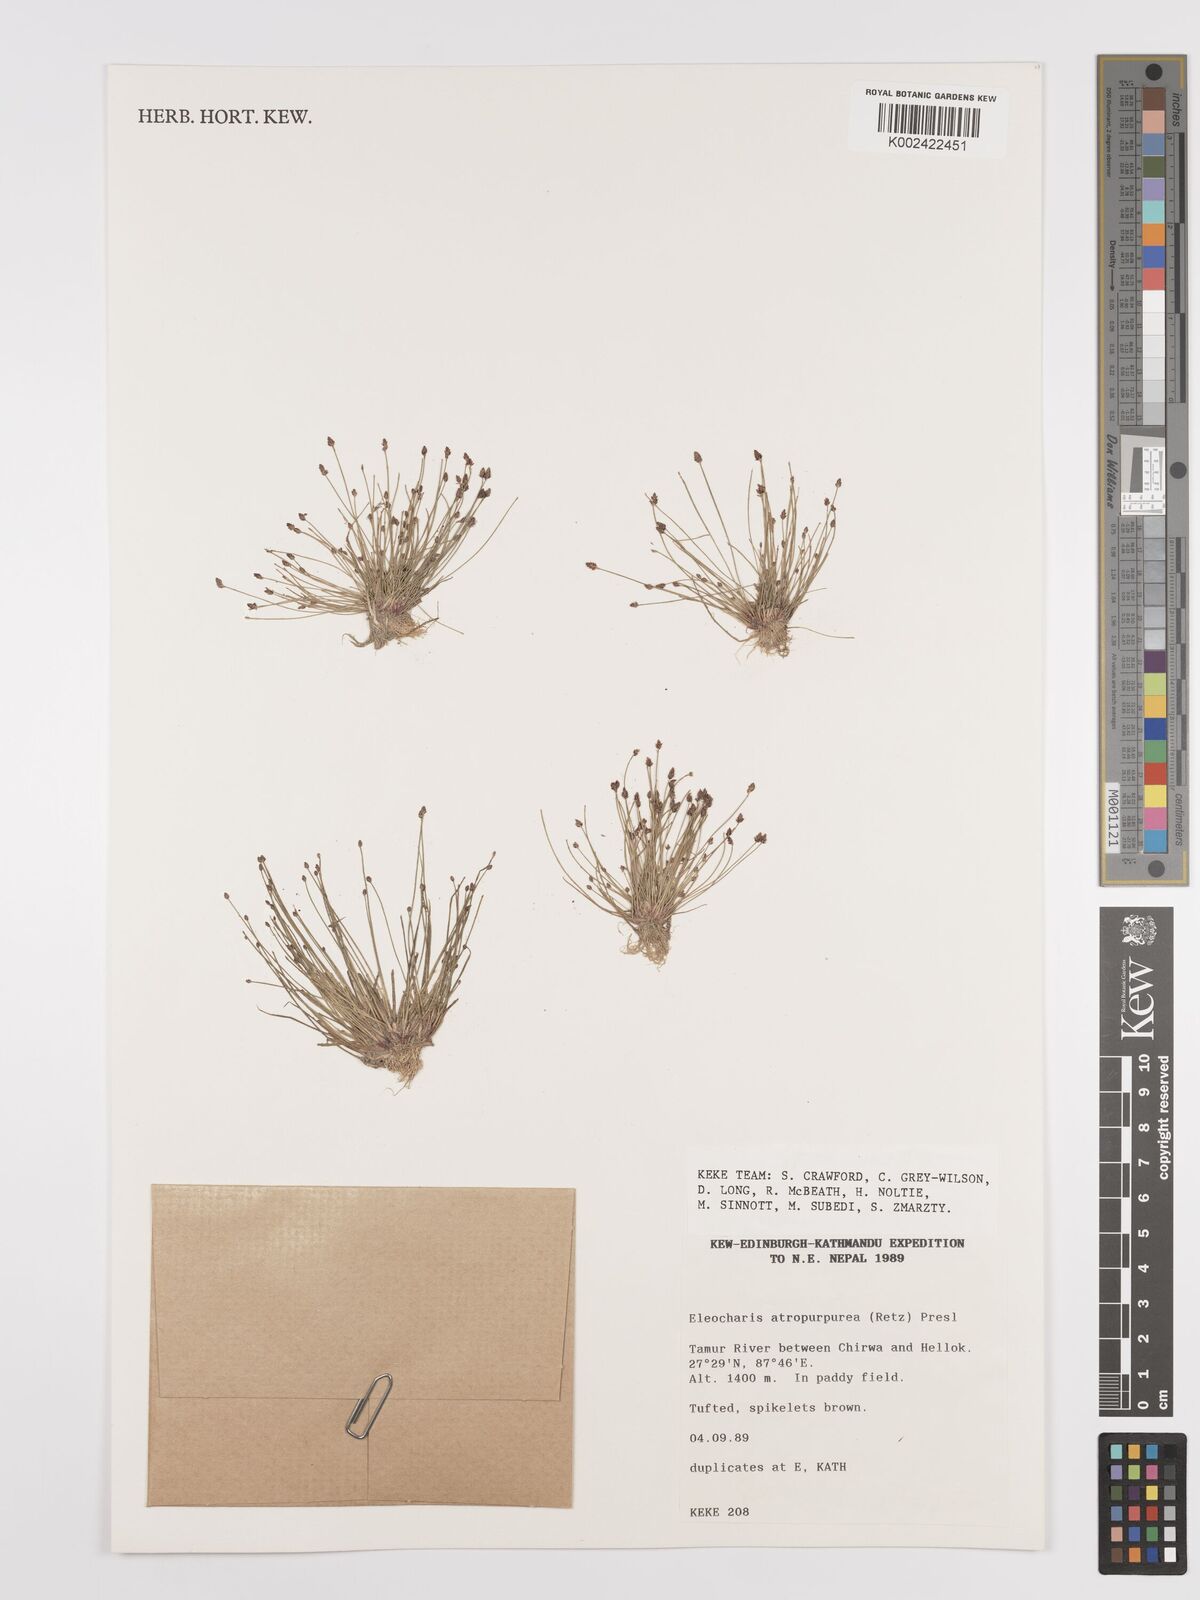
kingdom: Plantae
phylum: Tracheophyta
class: Liliopsida
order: Poales
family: Cyperaceae
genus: Eleocharis
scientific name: Eleocharis atropurpurea
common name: Purple spikerush
